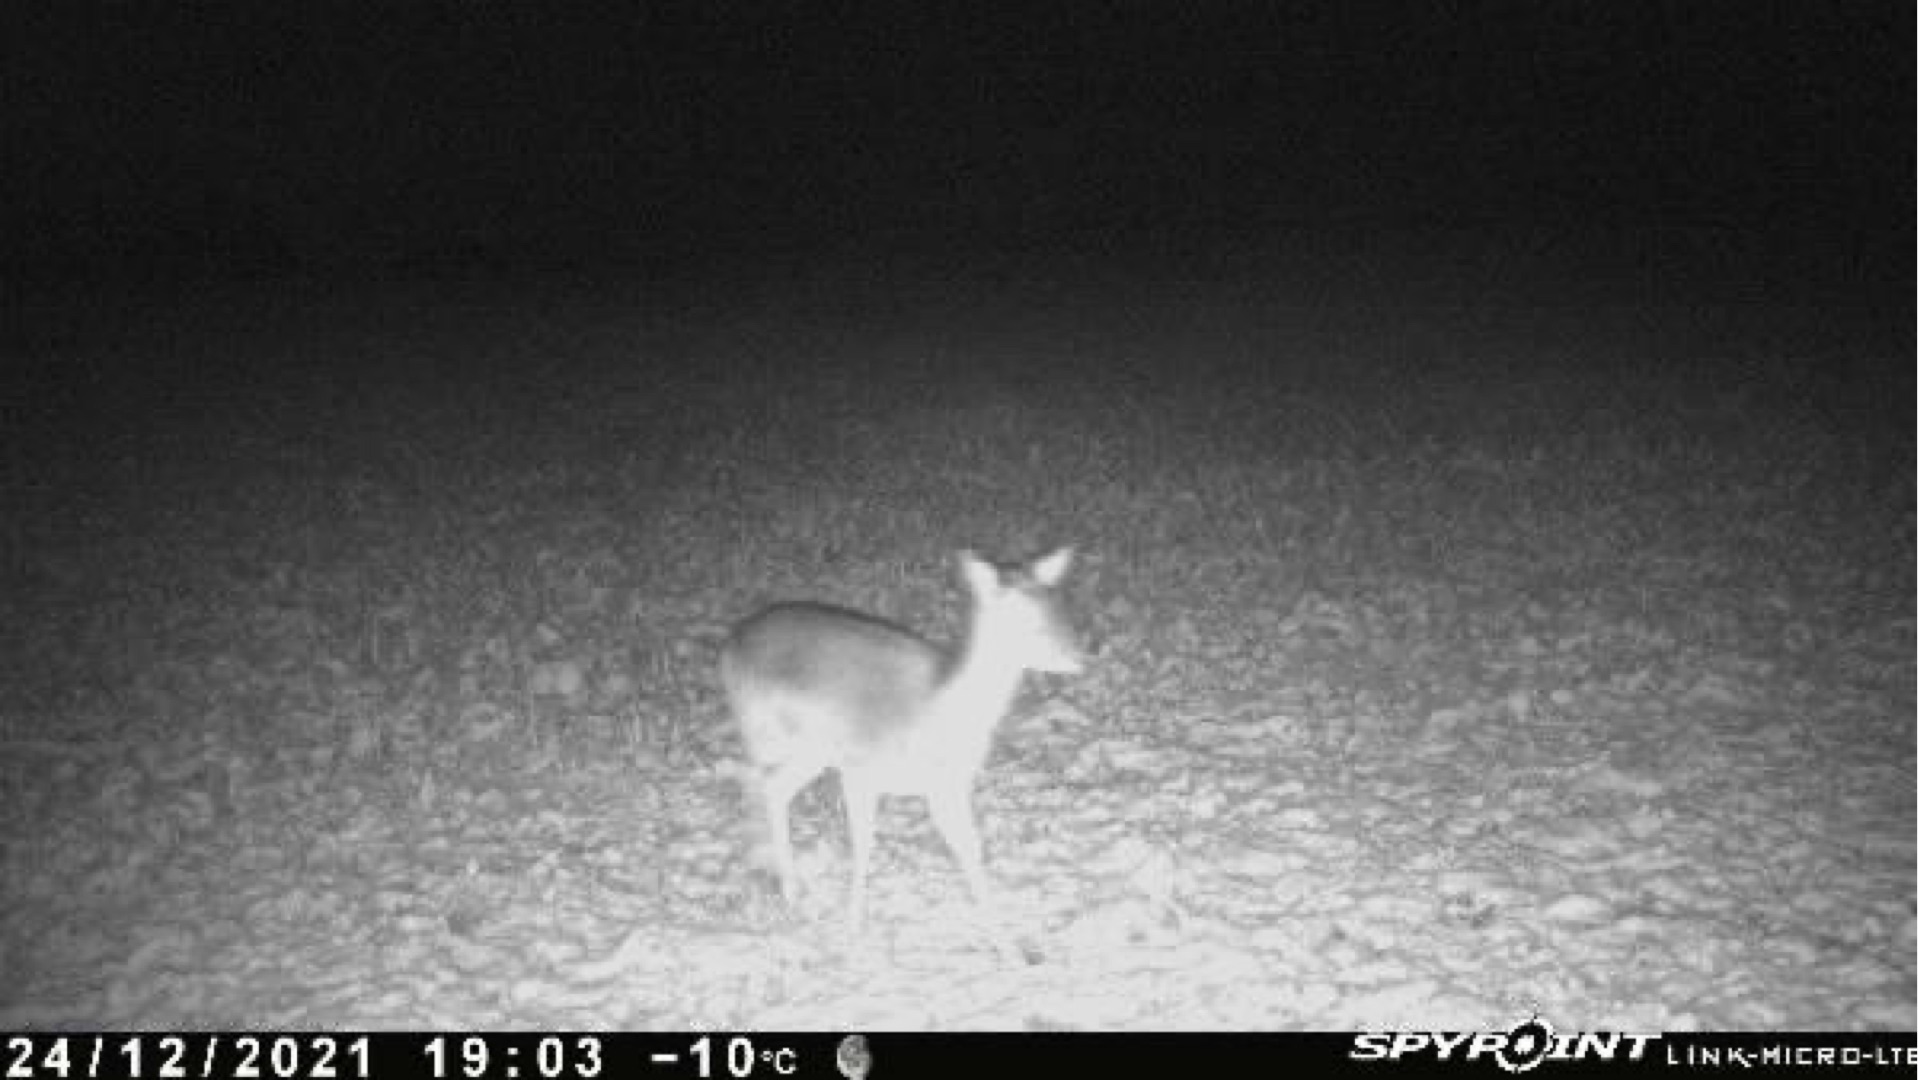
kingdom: Animalia
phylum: Chordata
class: Mammalia
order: Artiodactyla
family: Cervidae
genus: Dama
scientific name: Dama dama
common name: Dådyr
